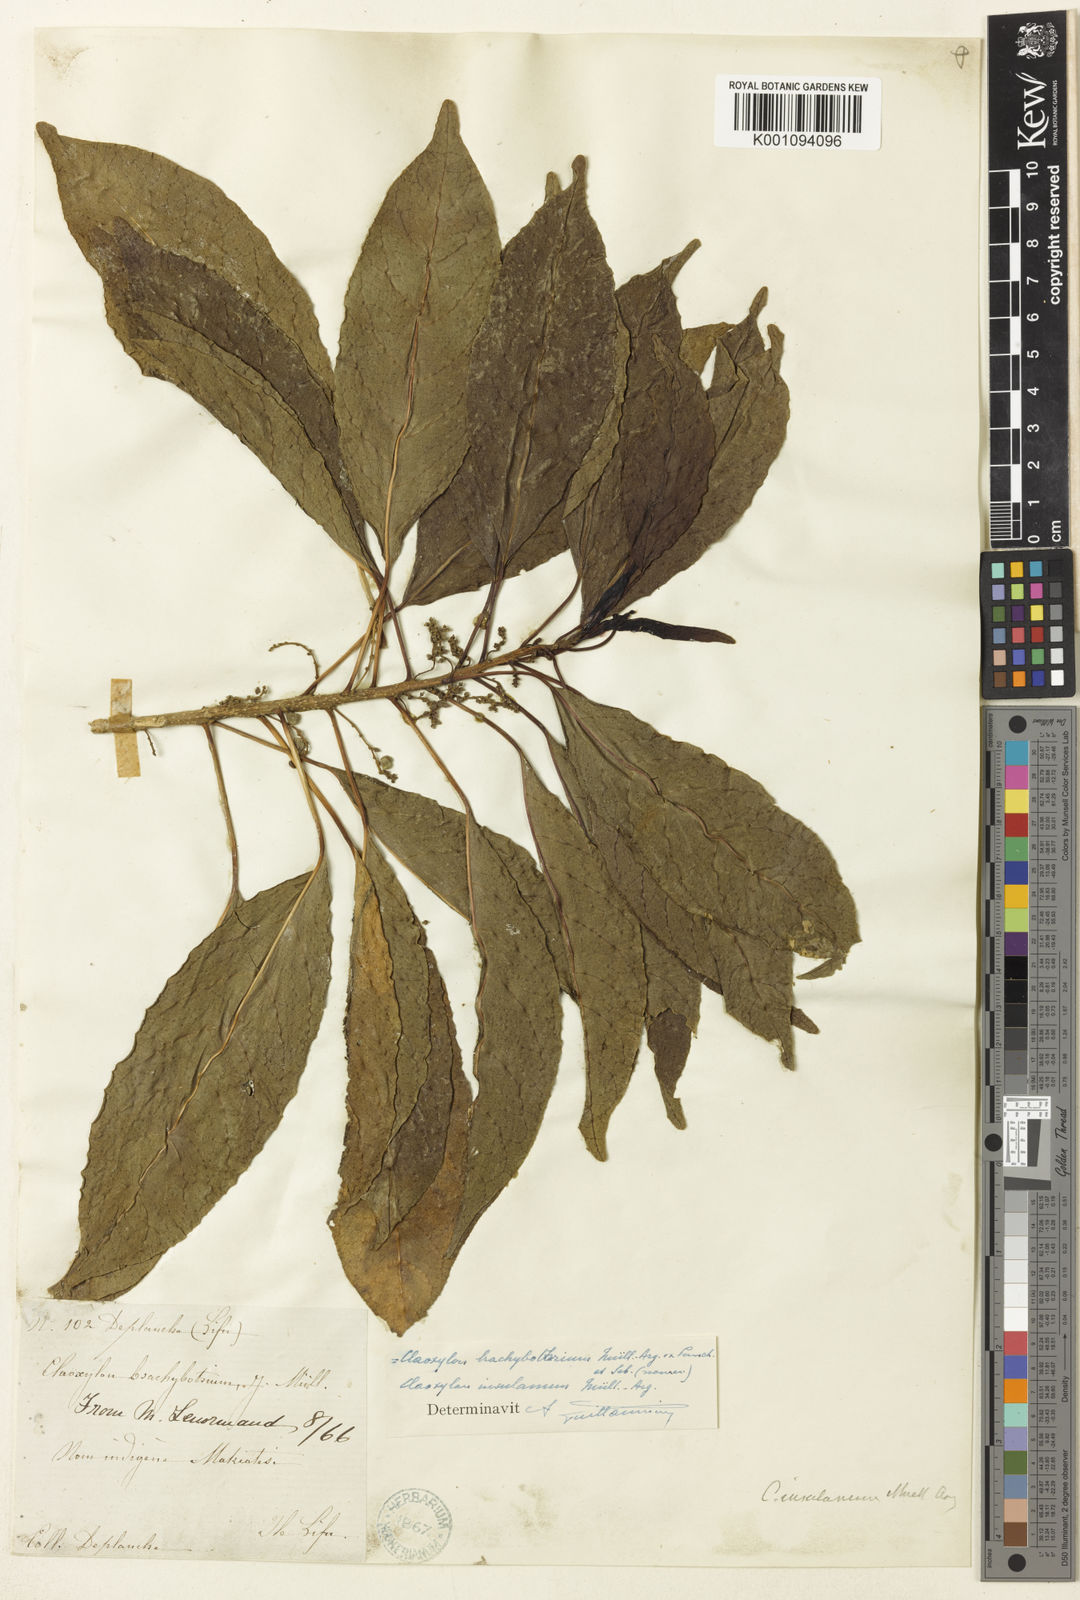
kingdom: Plantae
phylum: Tracheophyta
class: Magnoliopsida
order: Malpighiales
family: Euphorbiaceae
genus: Claoxylon
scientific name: Claoxylon
